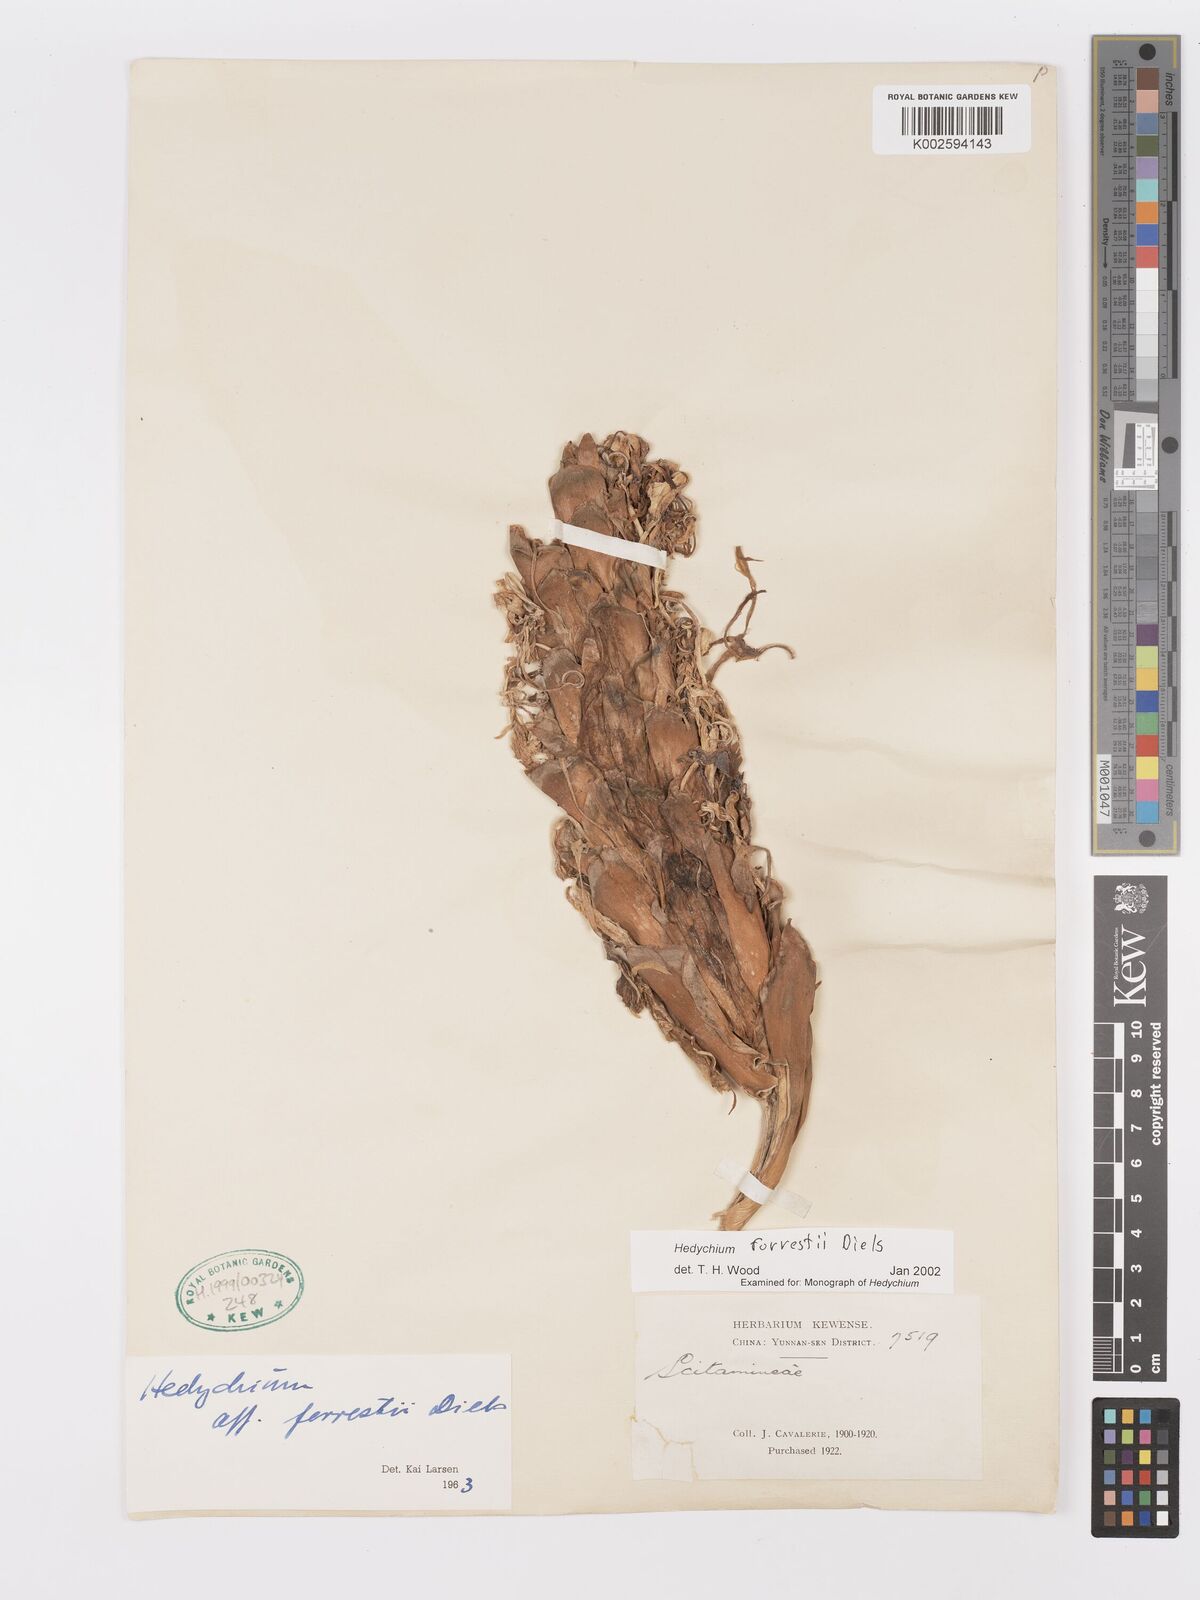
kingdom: Plantae
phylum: Tracheophyta
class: Liliopsida
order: Zingiberales
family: Zingiberaceae
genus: Hedychium
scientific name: Hedychium forrestii
